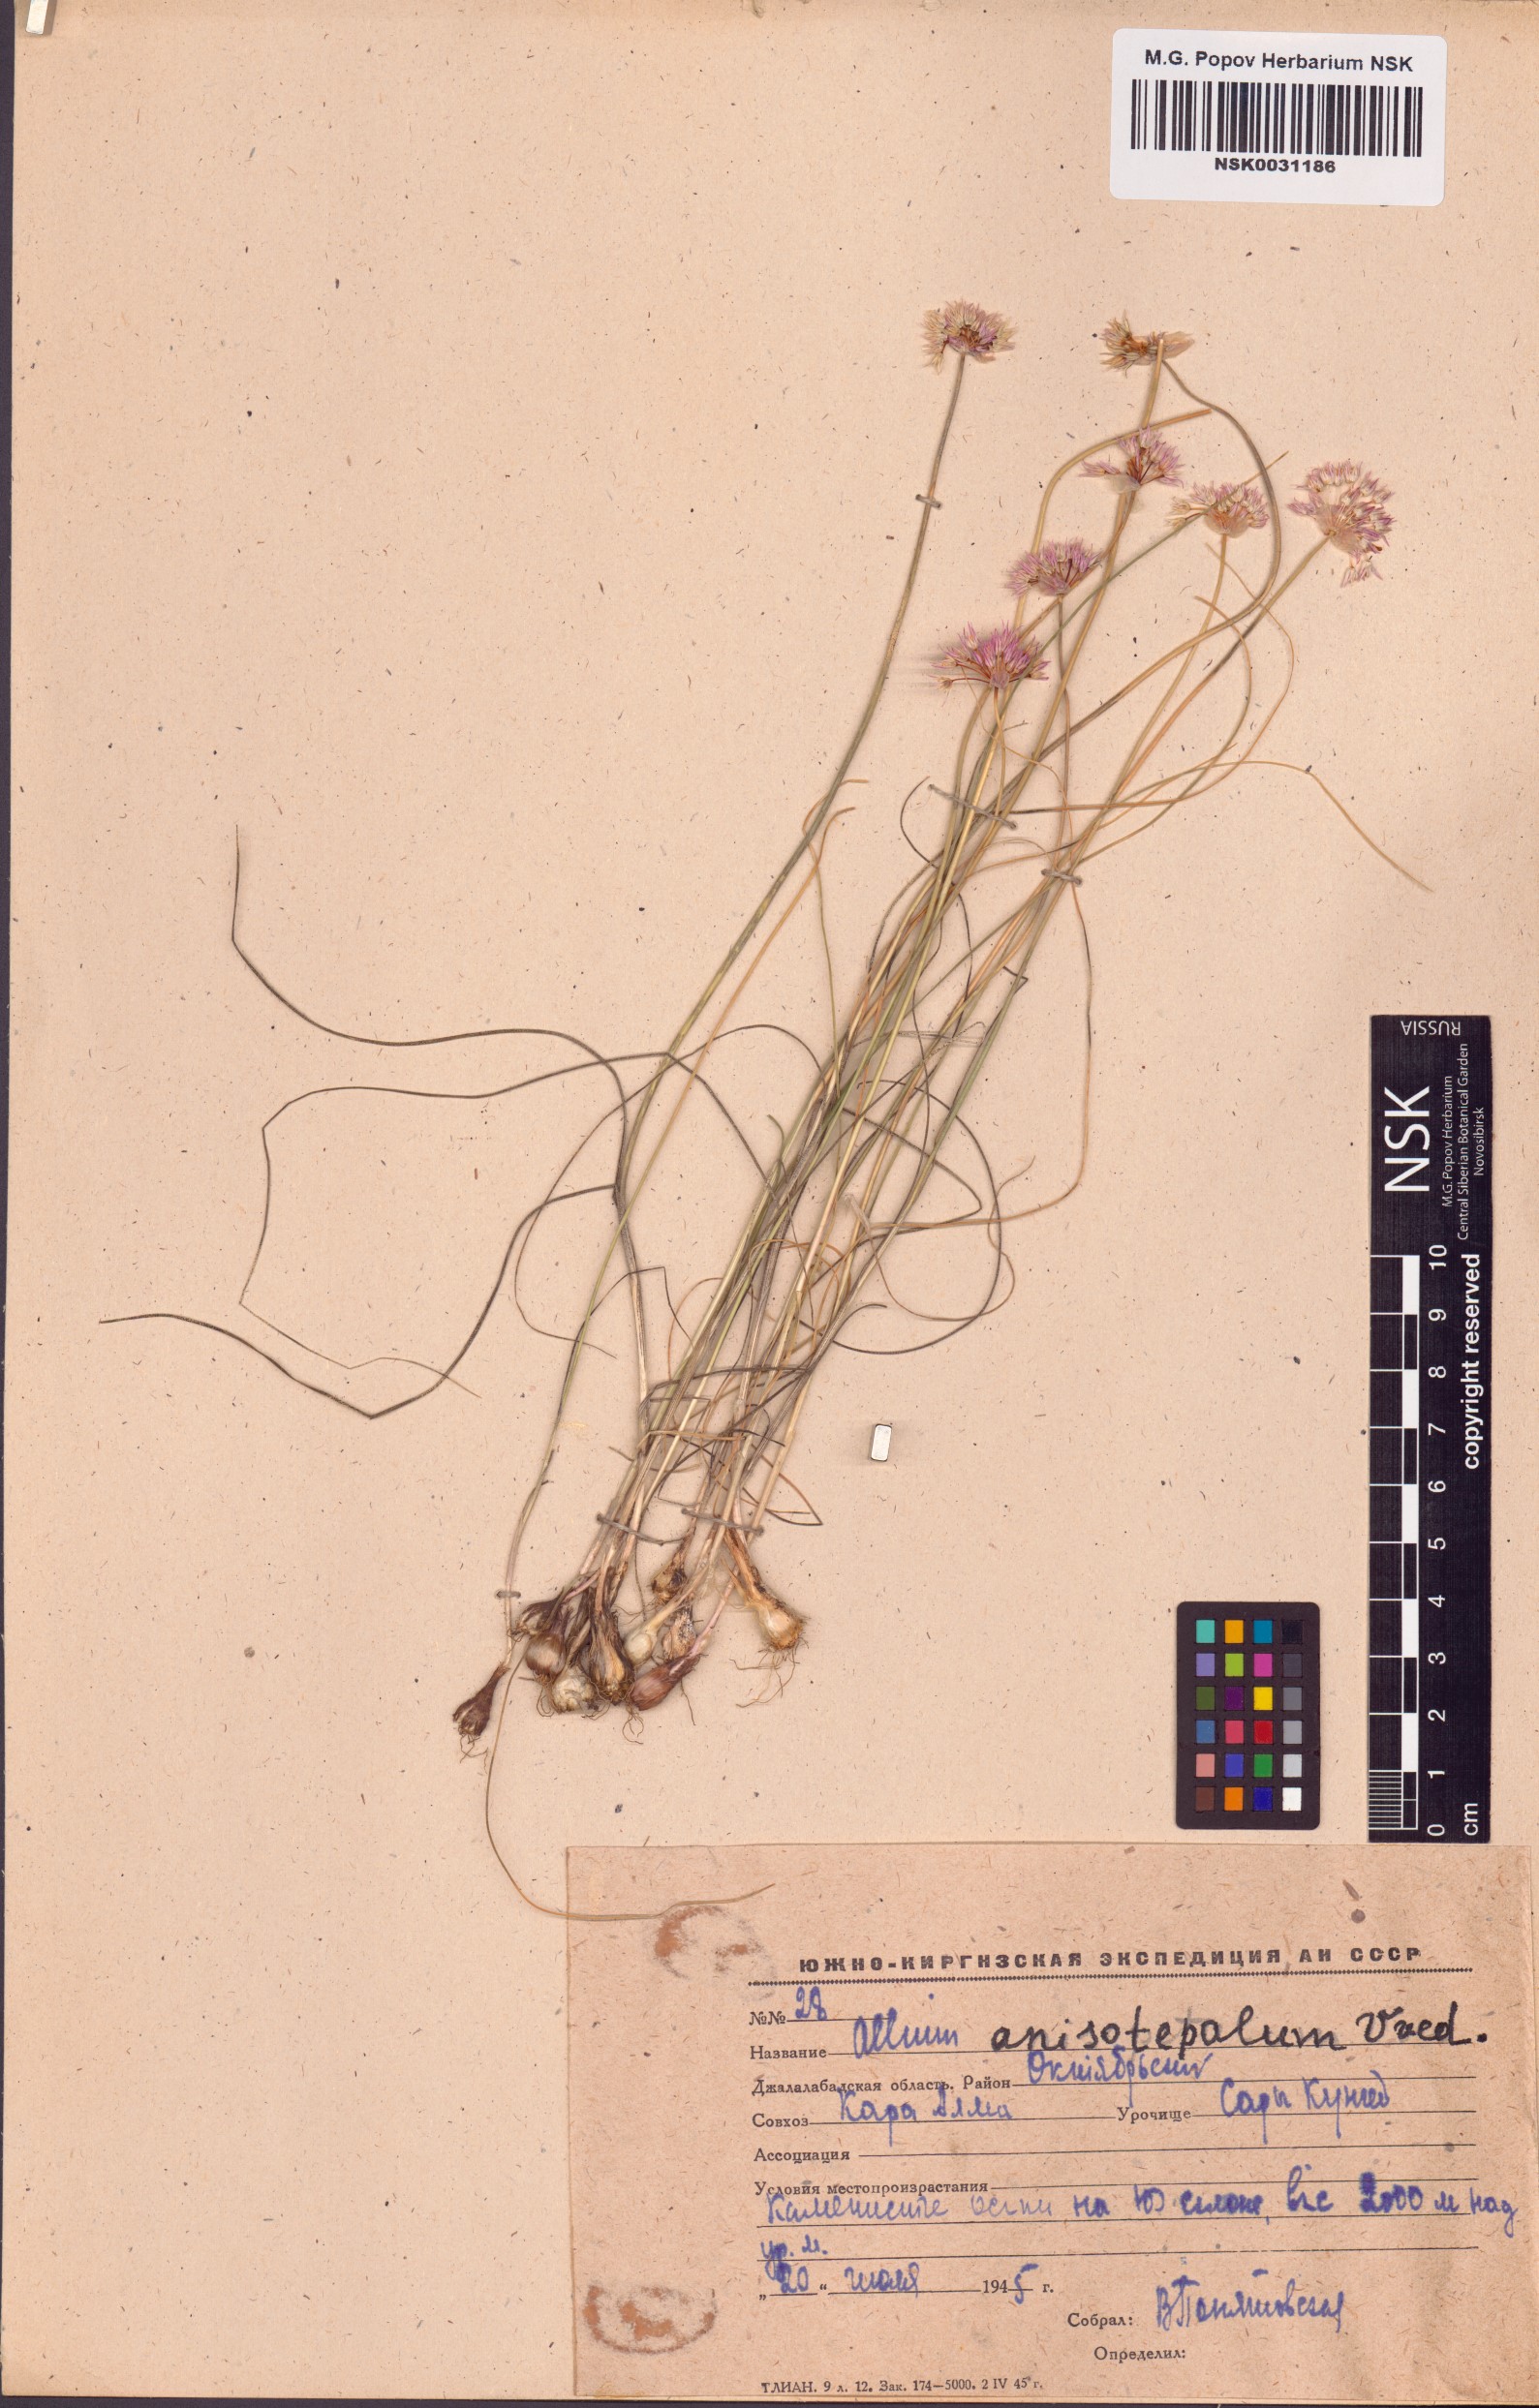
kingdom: Plantae
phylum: Tracheophyta
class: Liliopsida
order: Asparagales
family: Amaryllidaceae
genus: Allium
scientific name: Allium anisotepalum
